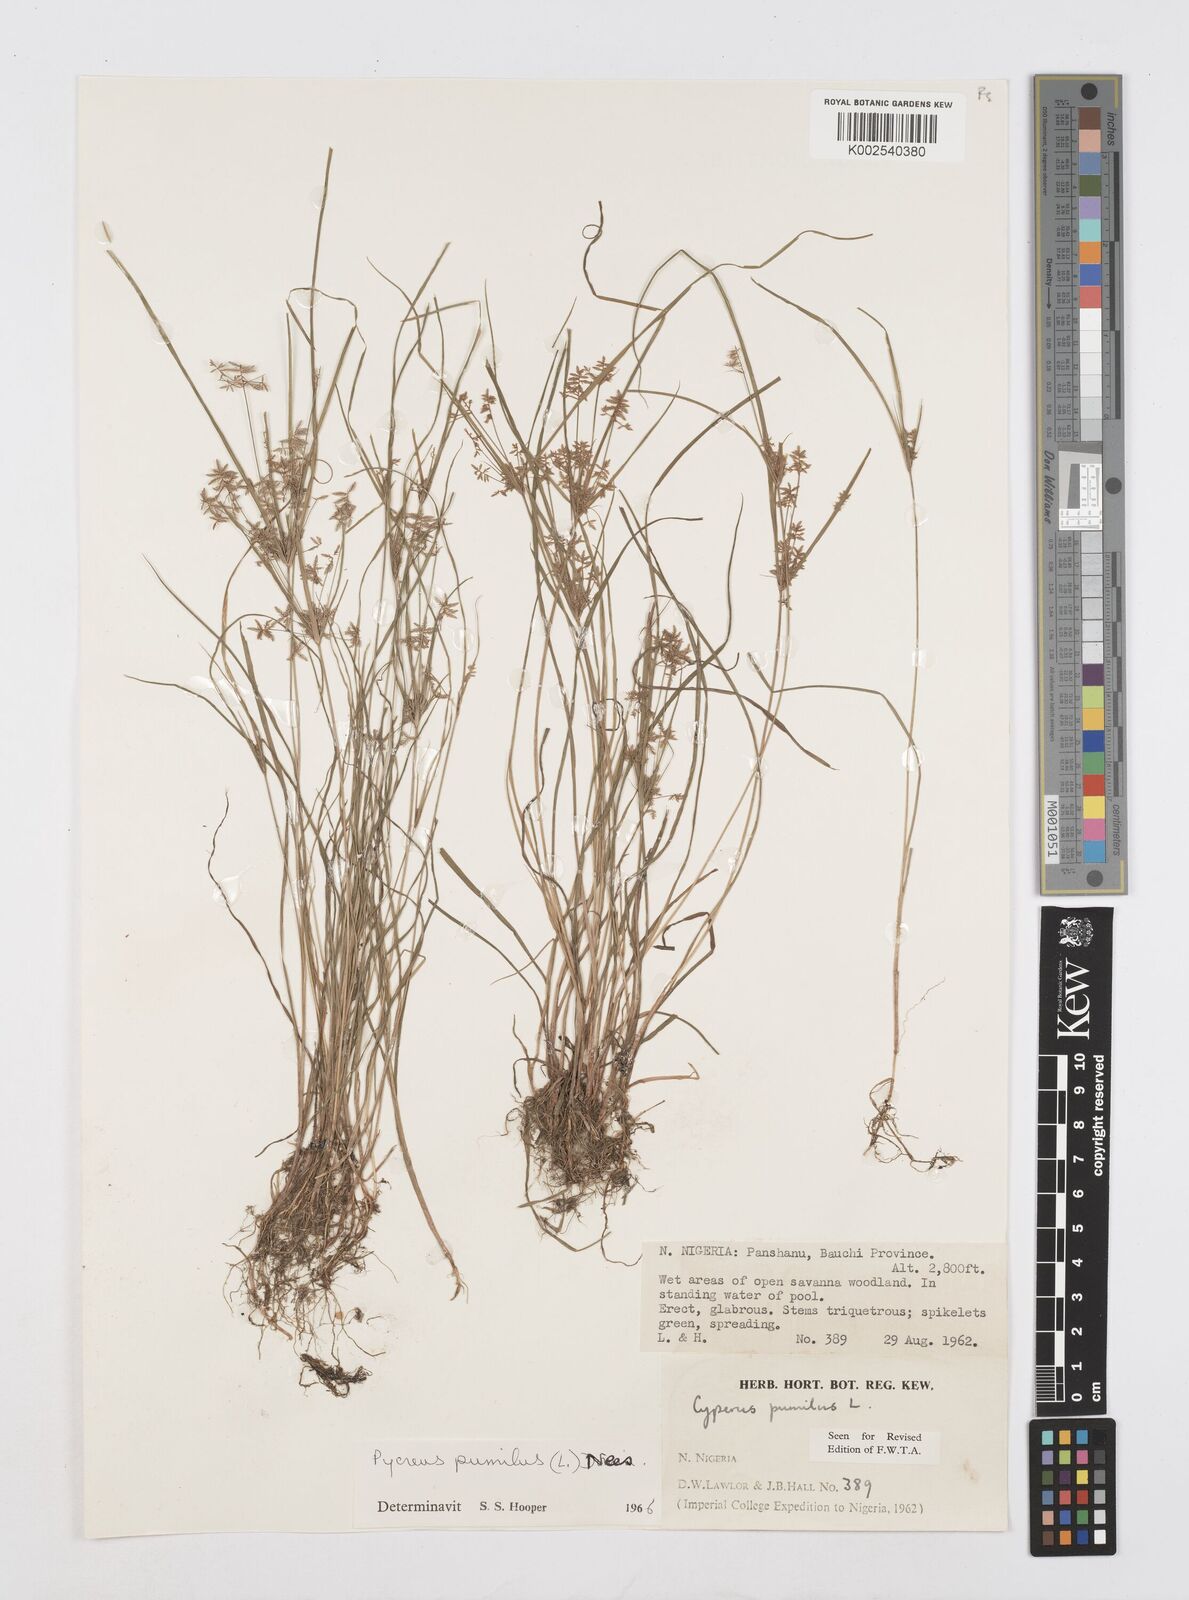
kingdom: Plantae
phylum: Tracheophyta
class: Liliopsida
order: Poales
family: Cyperaceae
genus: Cyperus
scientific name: Cyperus pumilus
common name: Low flatsedge
